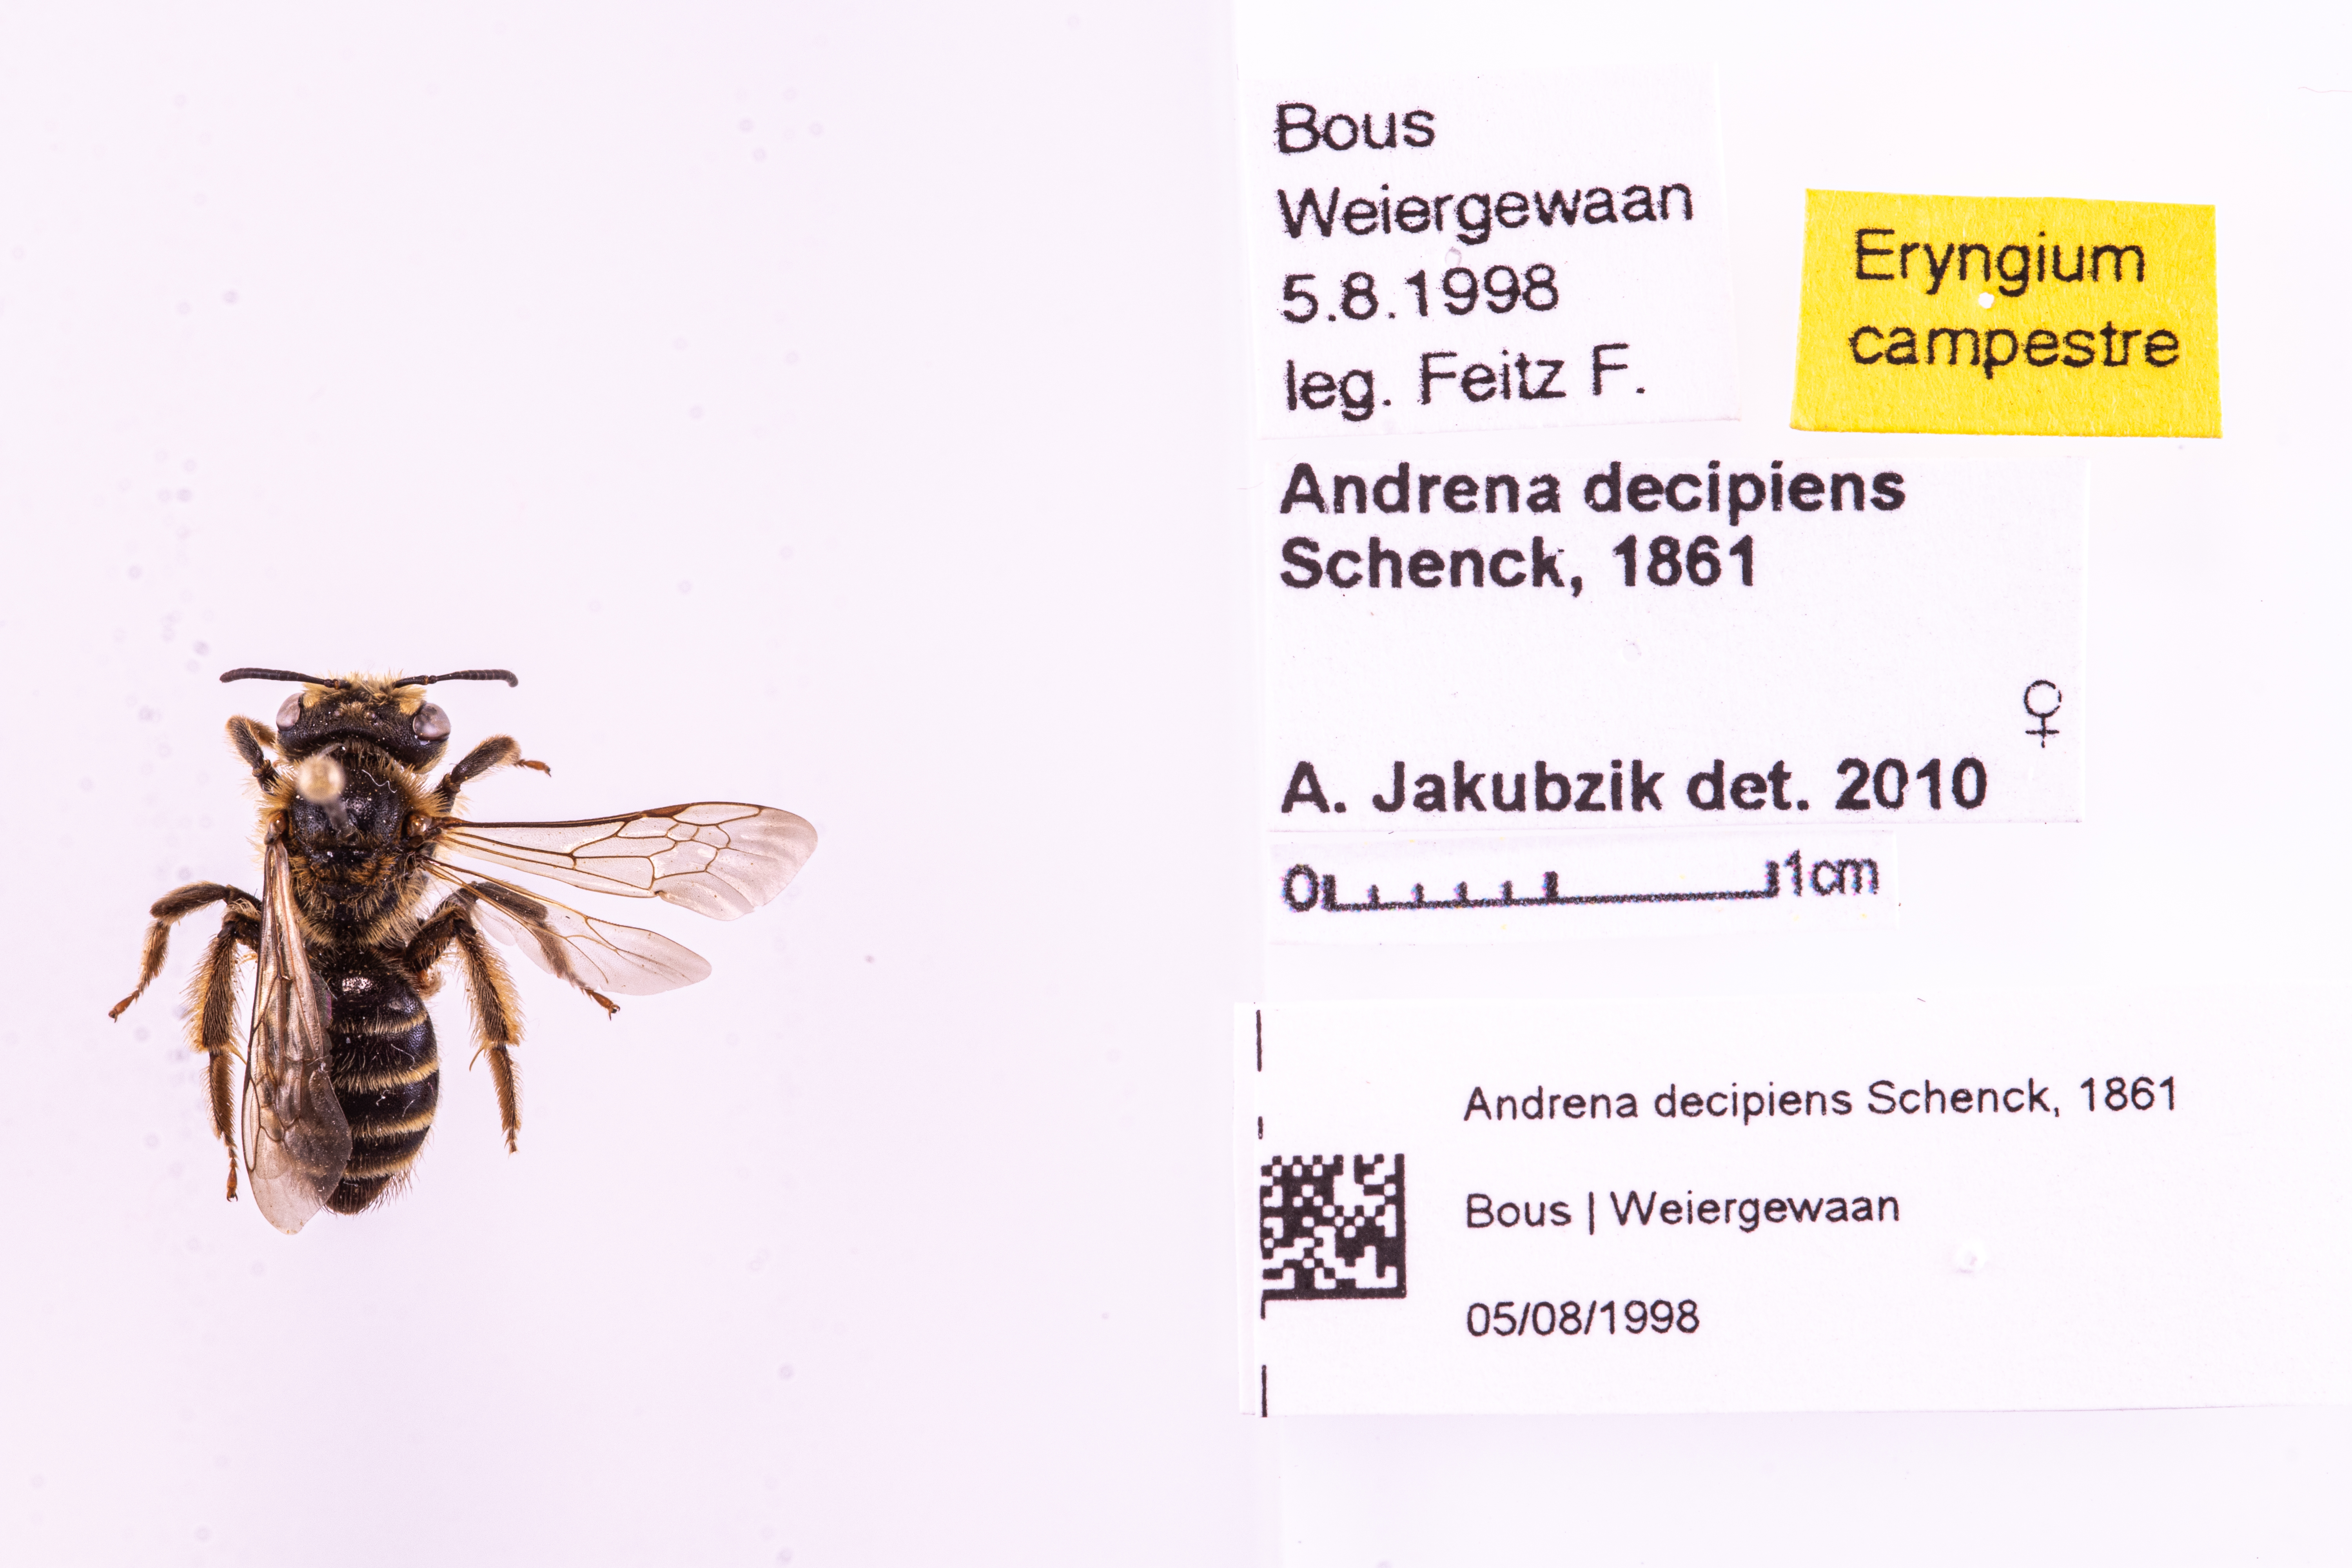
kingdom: Animalia
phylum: Arthropoda
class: Insecta
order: Hymenoptera
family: Andrenidae
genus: Andrena
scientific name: Andrena decipiens
